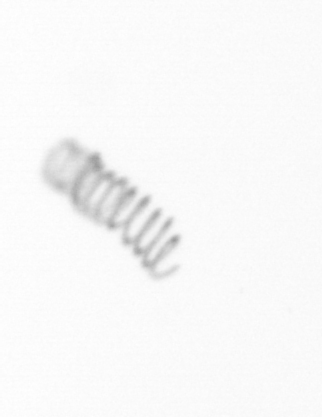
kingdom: Chromista
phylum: Ochrophyta
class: Bacillariophyceae
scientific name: Bacillariophyceae
